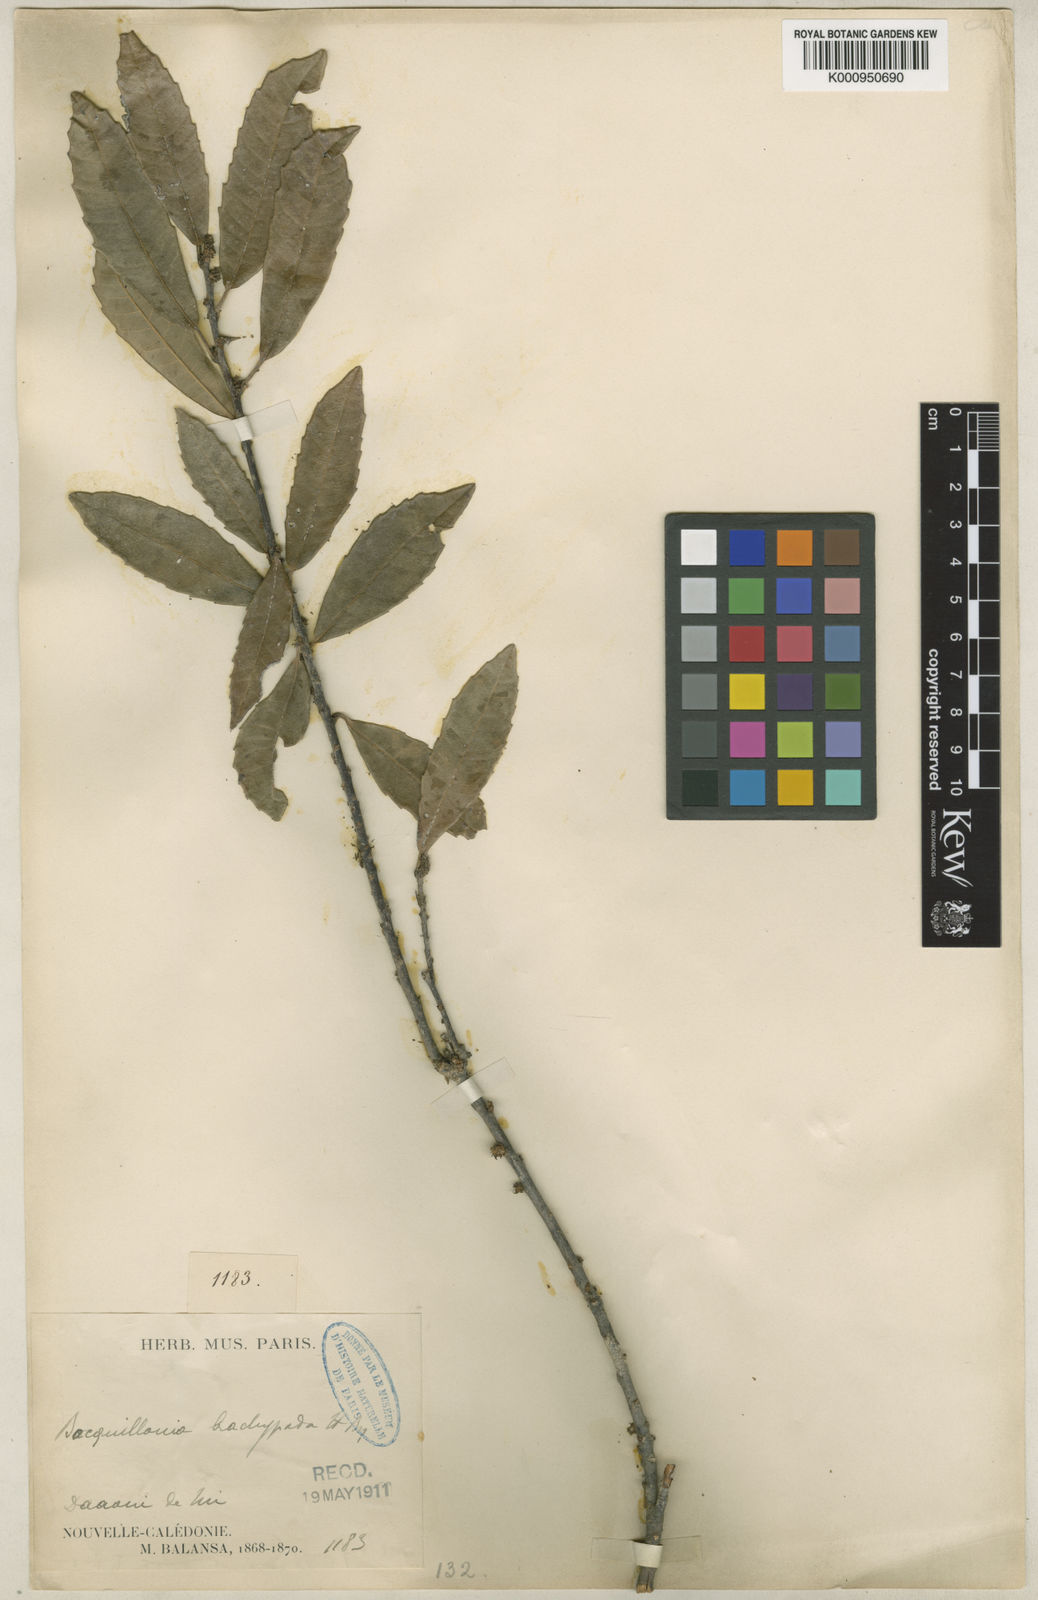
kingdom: Plantae
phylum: Tracheophyta
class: Magnoliopsida
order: Malpighiales
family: Euphorbiaceae
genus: Bocquillonia
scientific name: Bocquillonia brachypoda
